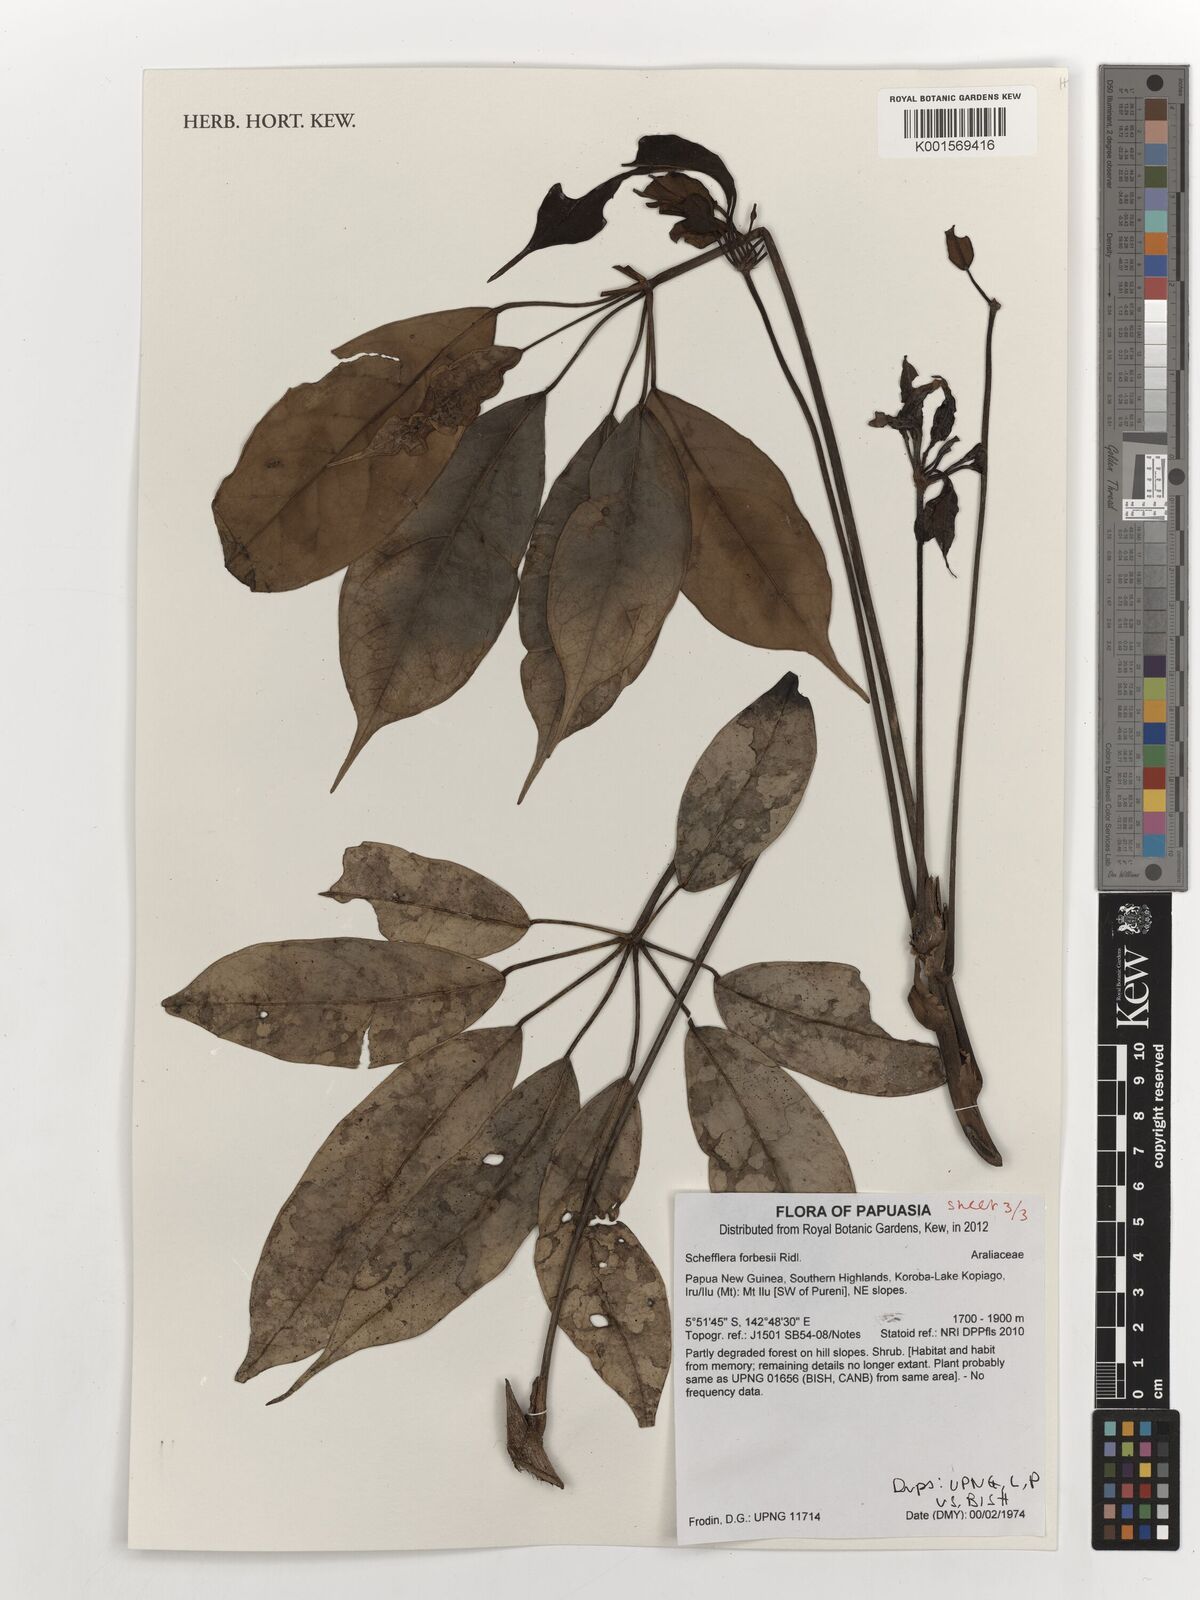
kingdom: Plantae
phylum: Tracheophyta
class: Magnoliopsida
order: Apiales
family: Araliaceae
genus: Heptapleurum
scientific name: Heptapleurum forbesii
